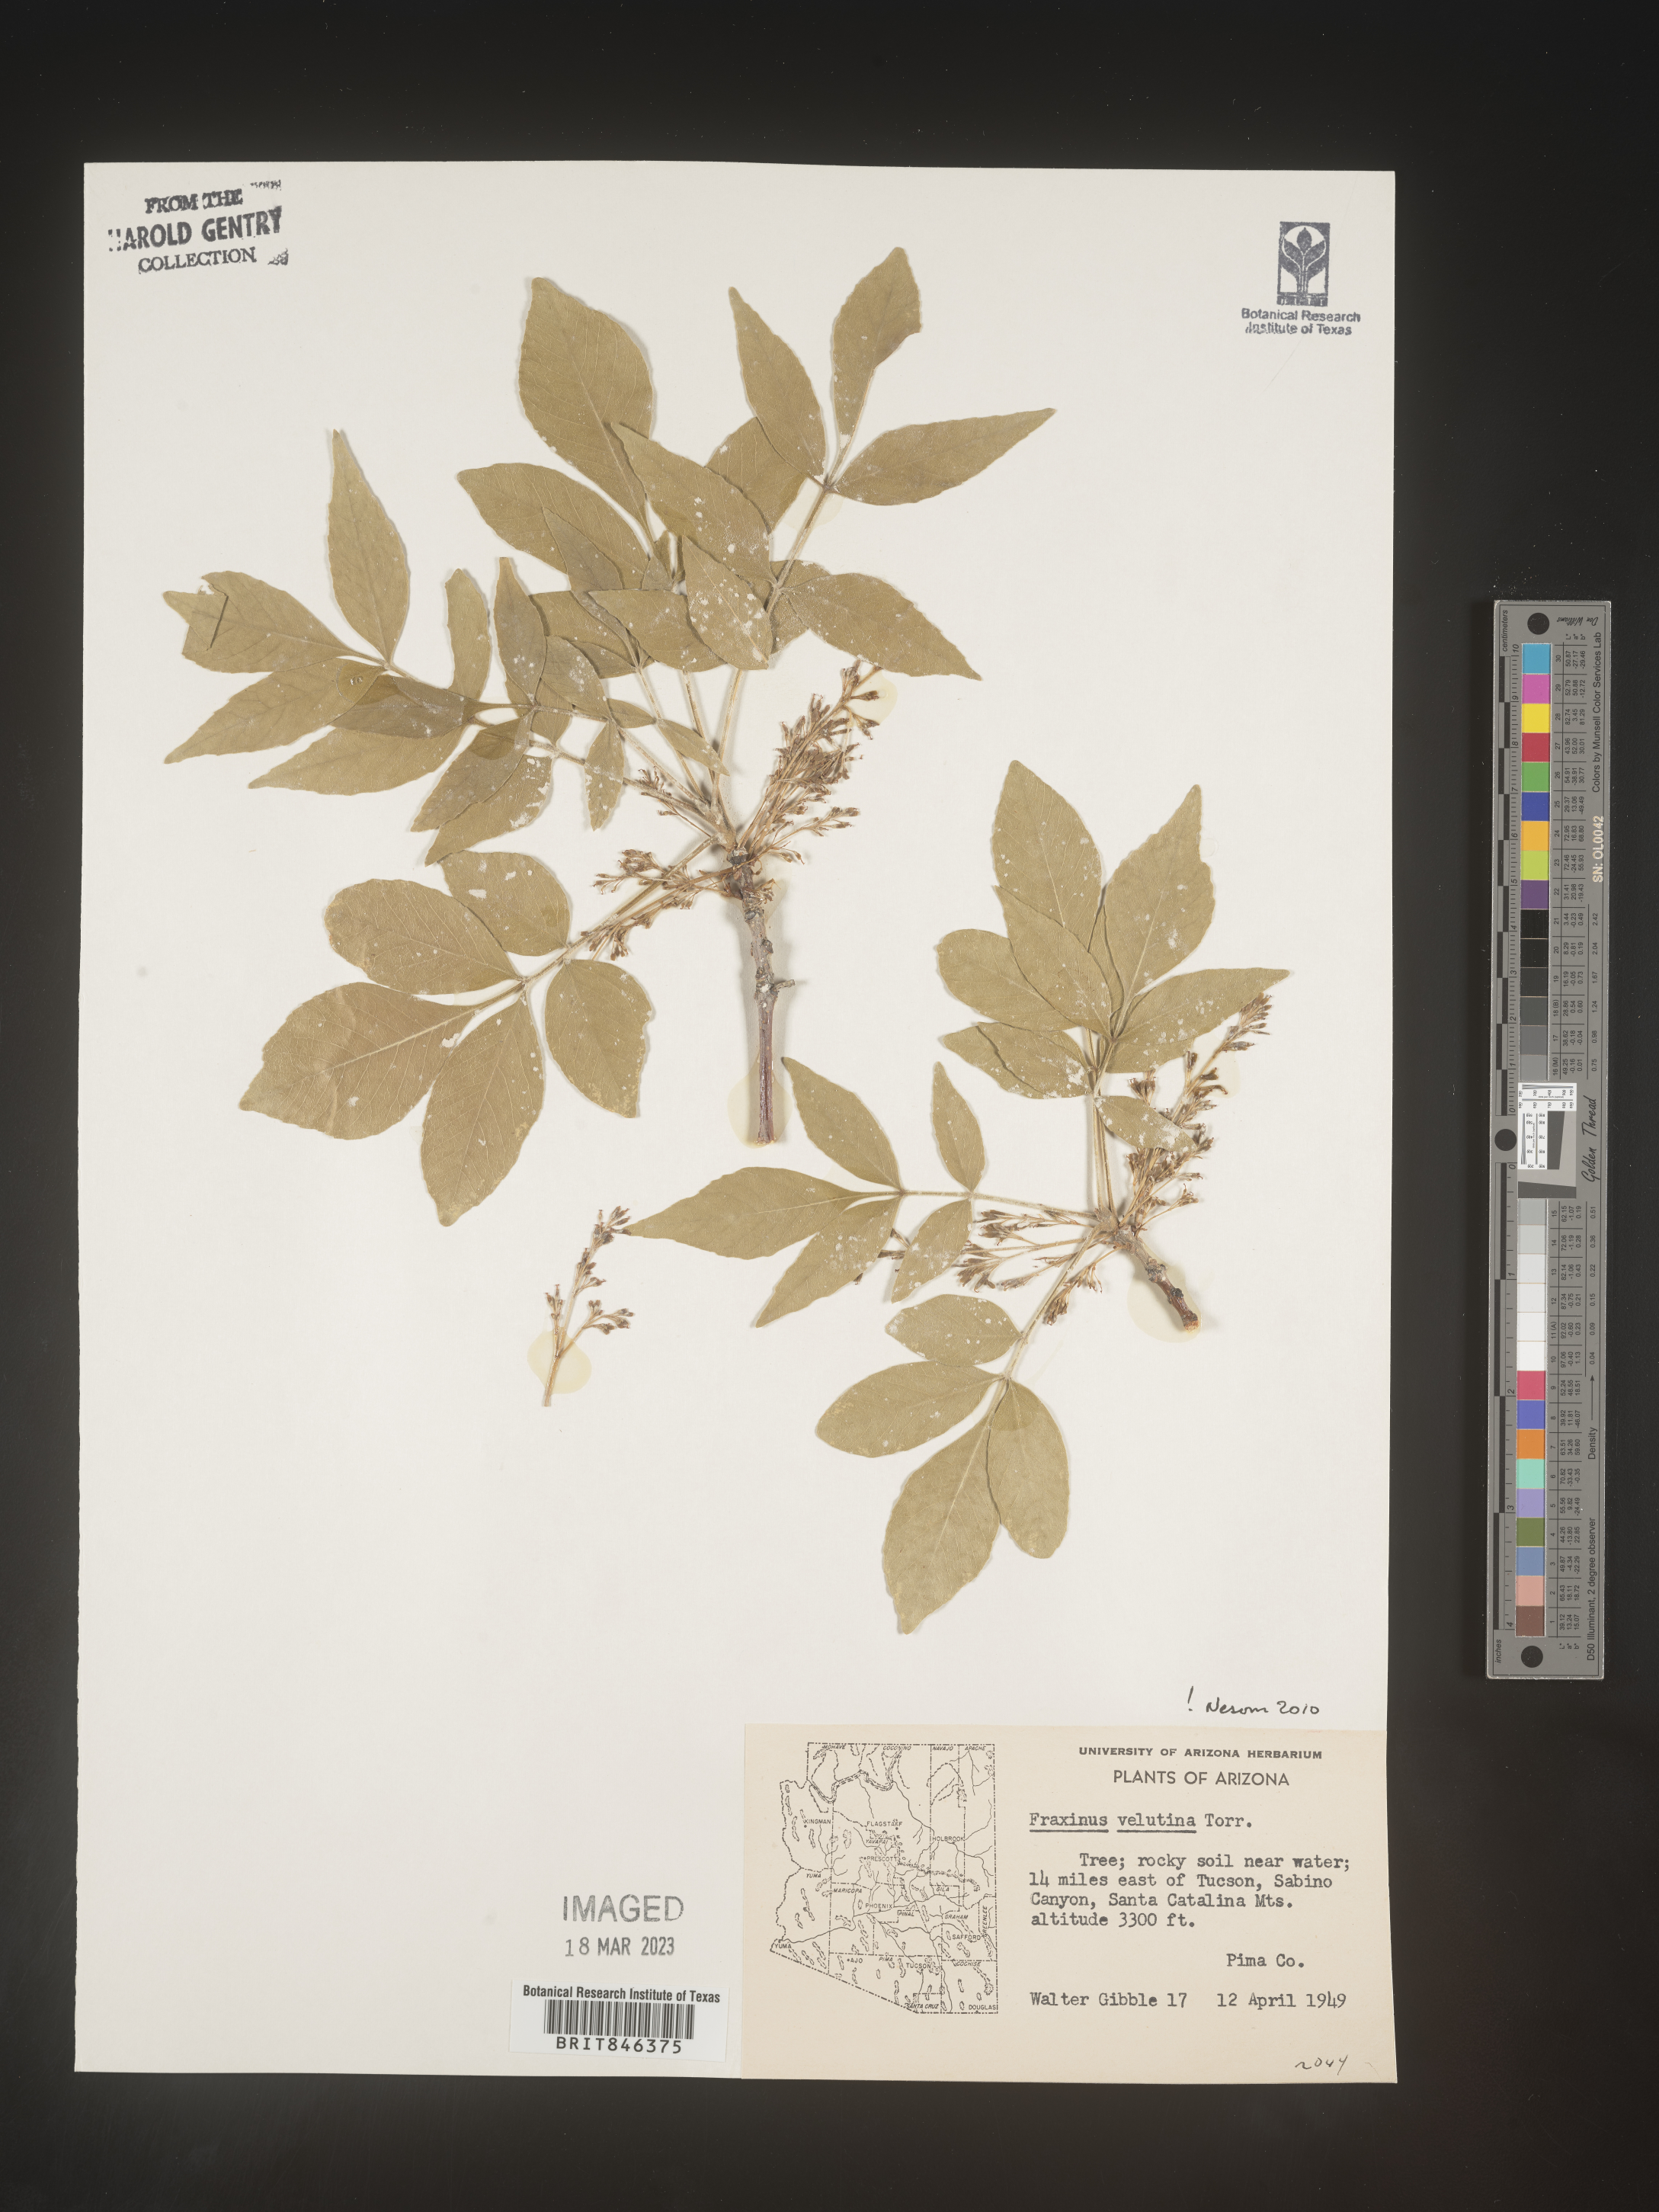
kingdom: Plantae
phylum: Tracheophyta
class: Magnoliopsida
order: Lamiales
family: Oleaceae
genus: Fraxinus
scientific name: Fraxinus velutina
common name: Arizon ash
